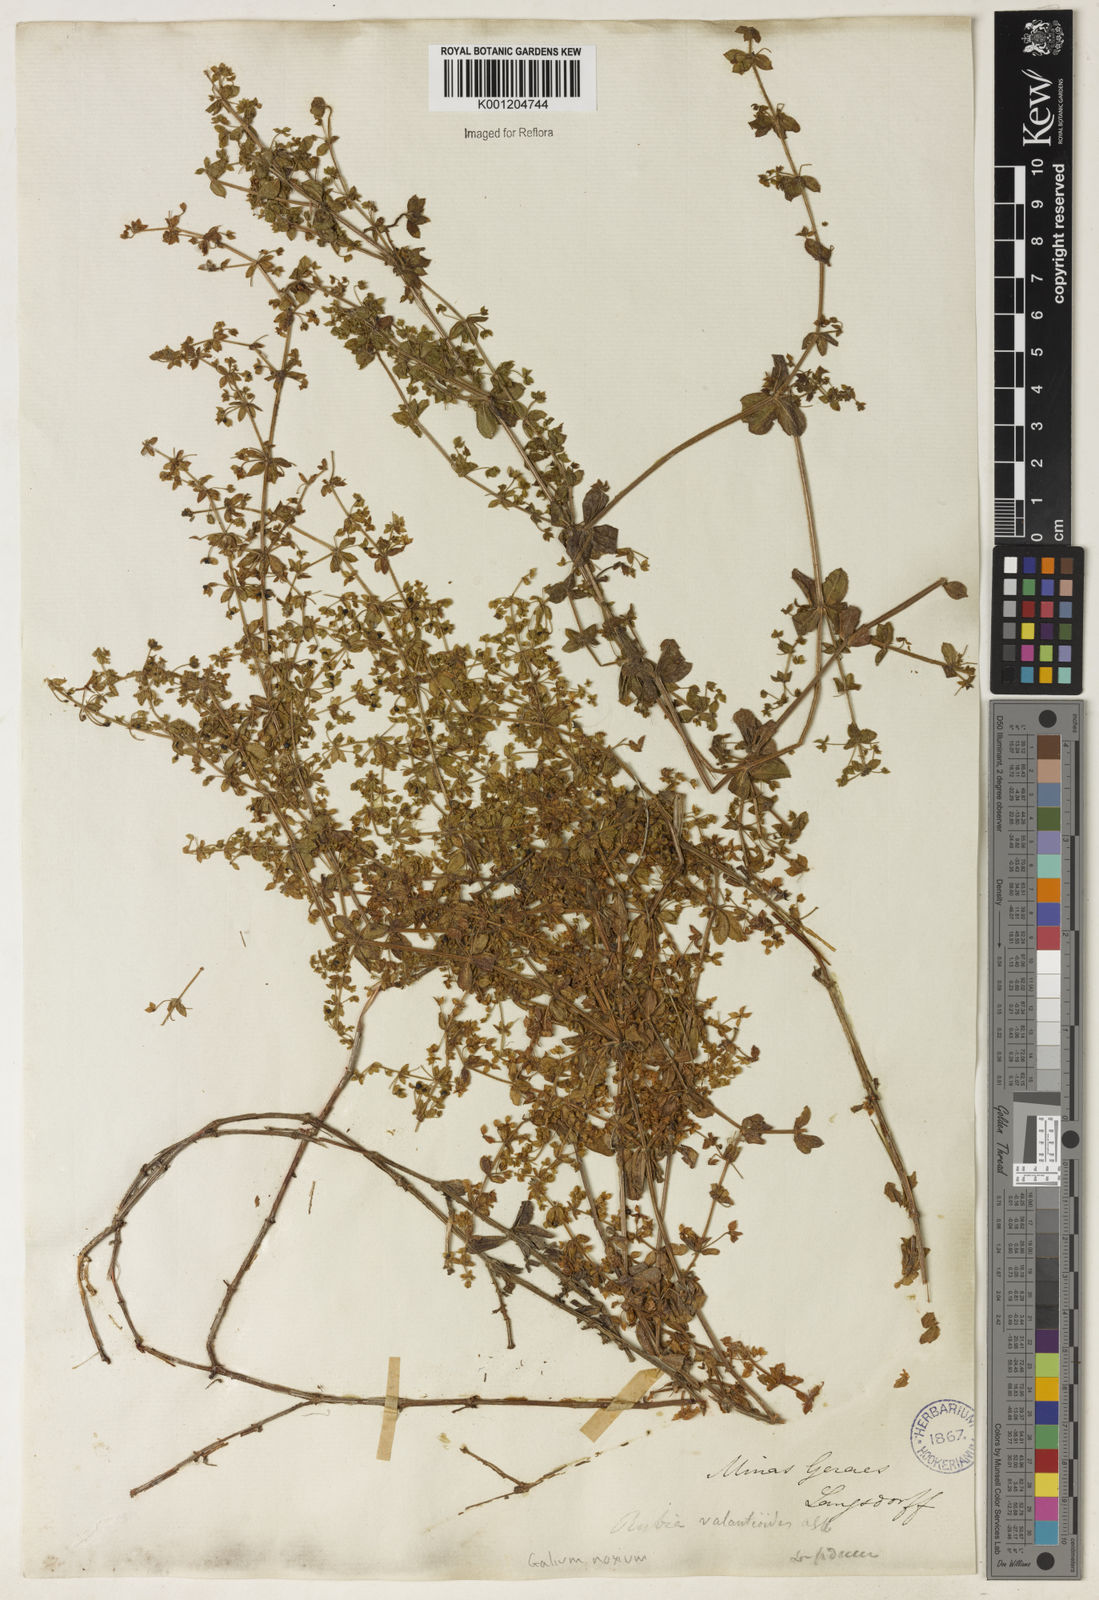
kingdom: Plantae
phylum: Tracheophyta
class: Magnoliopsida
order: Gentianales
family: Rubiaceae
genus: Galium
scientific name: Galium noxium
